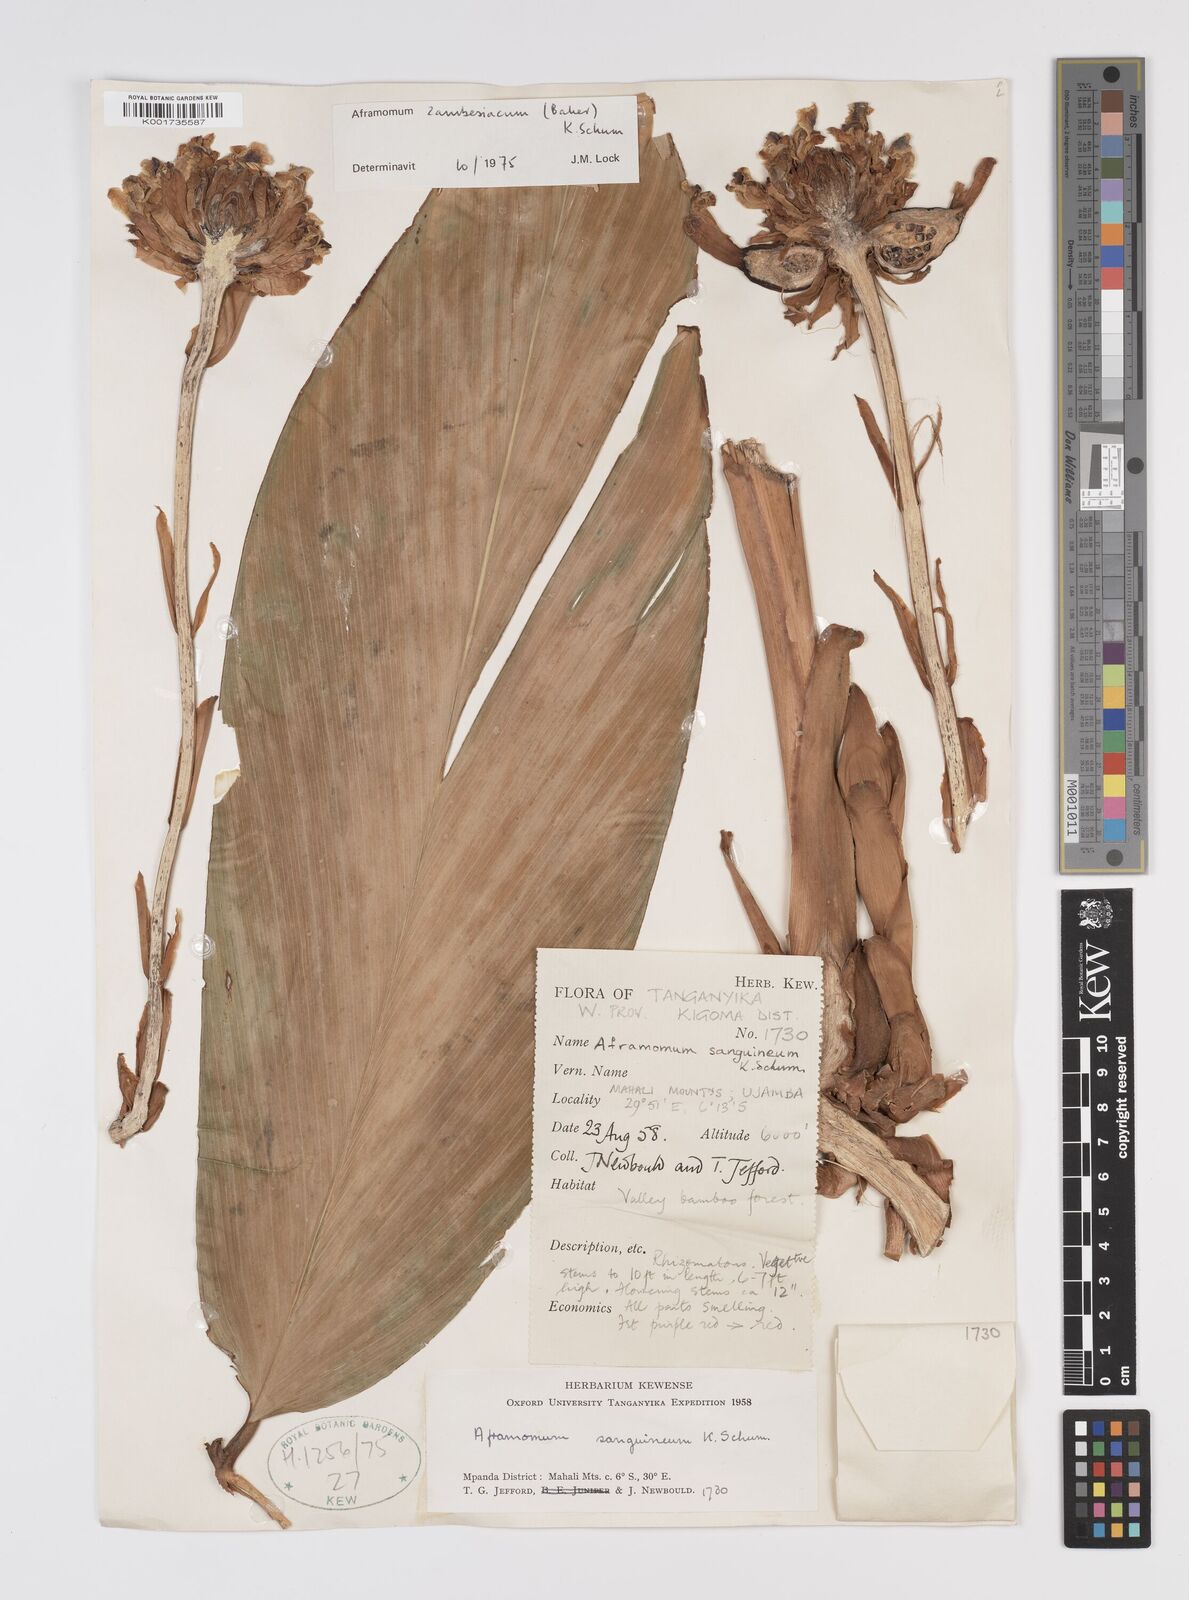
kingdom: Plantae
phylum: Tracheophyta
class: Liliopsida
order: Zingiberales
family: Zingiberaceae
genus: Aframomum
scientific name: Aframomum zambesiacum
